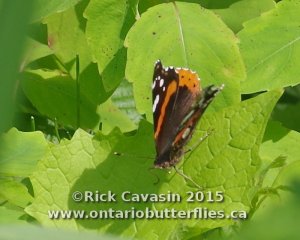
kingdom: Animalia
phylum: Arthropoda
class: Insecta
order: Lepidoptera
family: Nymphalidae
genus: Vanessa
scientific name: Vanessa atalanta
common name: Red Admiral
